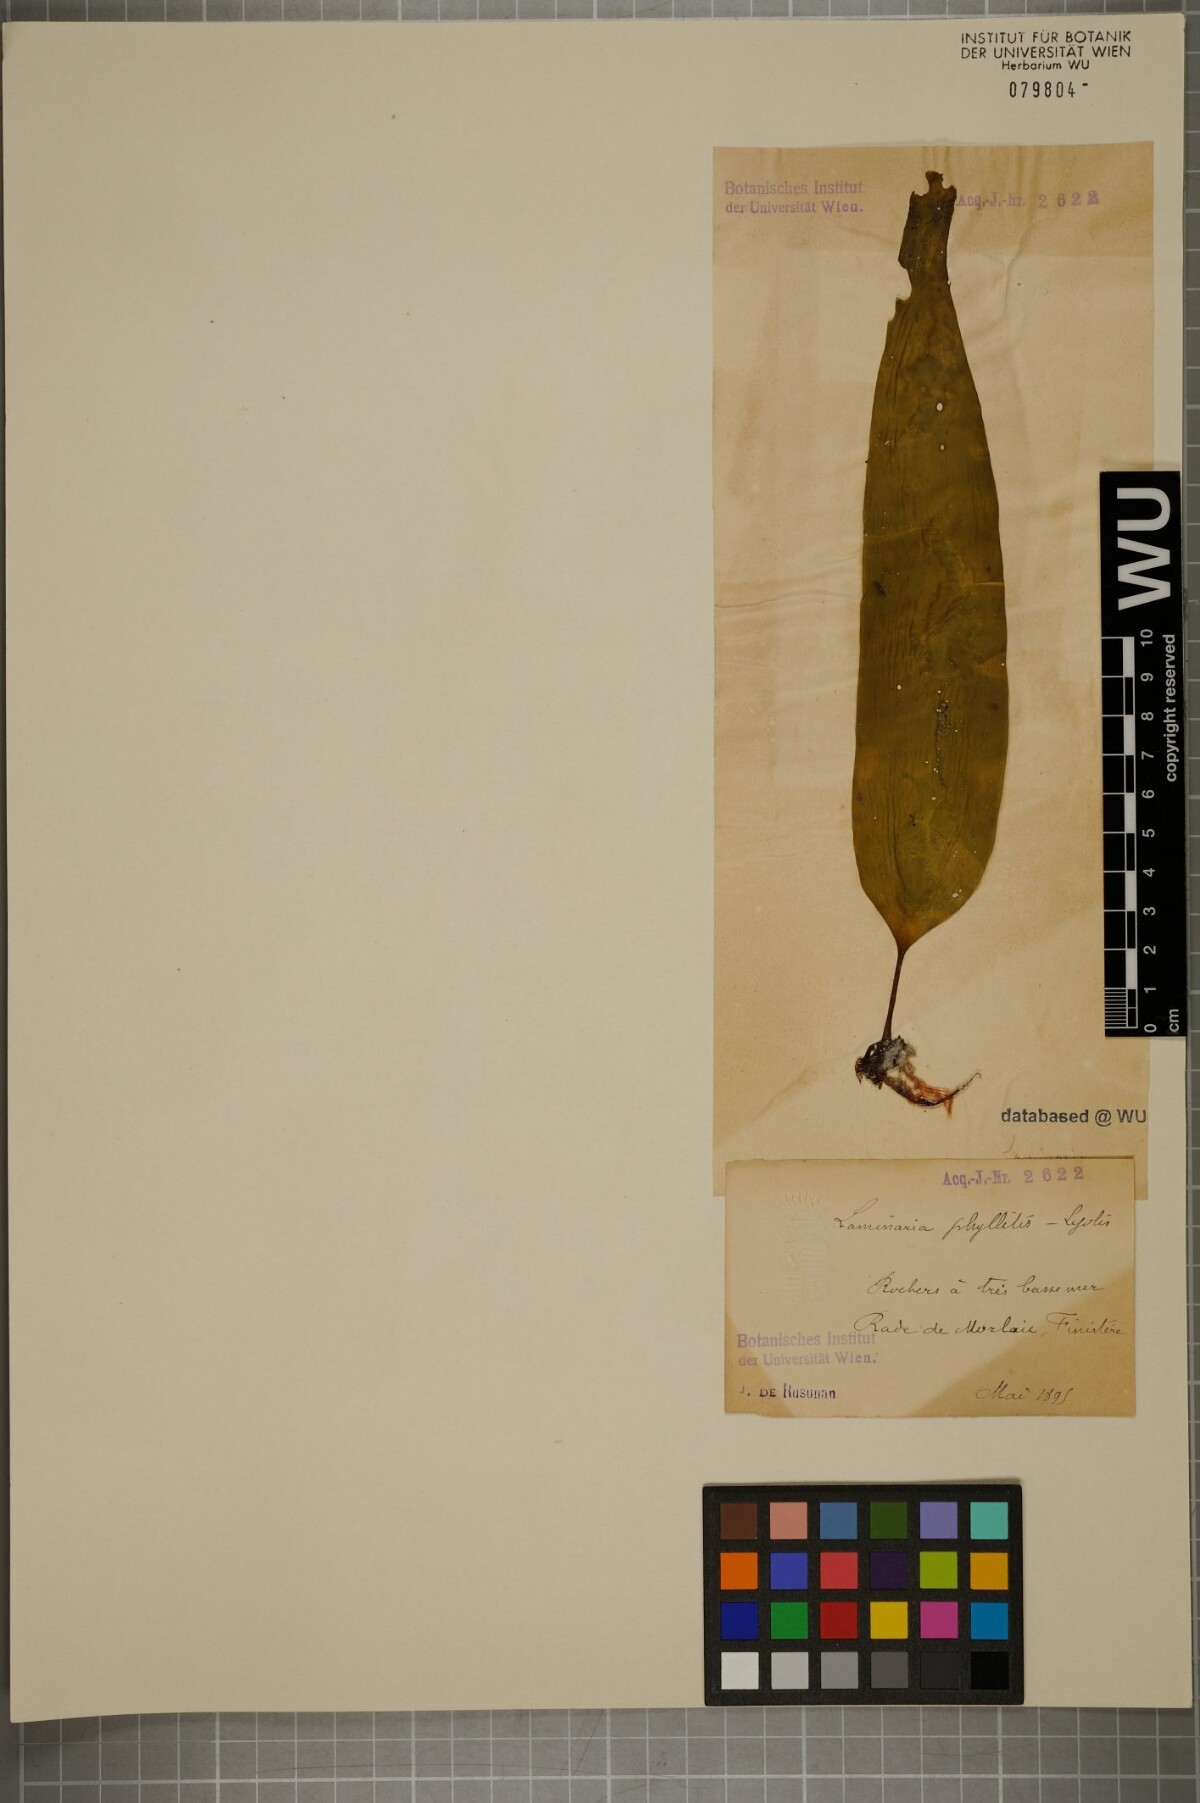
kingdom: Chromista
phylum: Ochrophyta
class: Phaeophyceae
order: Laminariales
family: Laminariaceae
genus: Saccharina
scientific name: Saccharina latissima
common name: Poor man's weather glass
